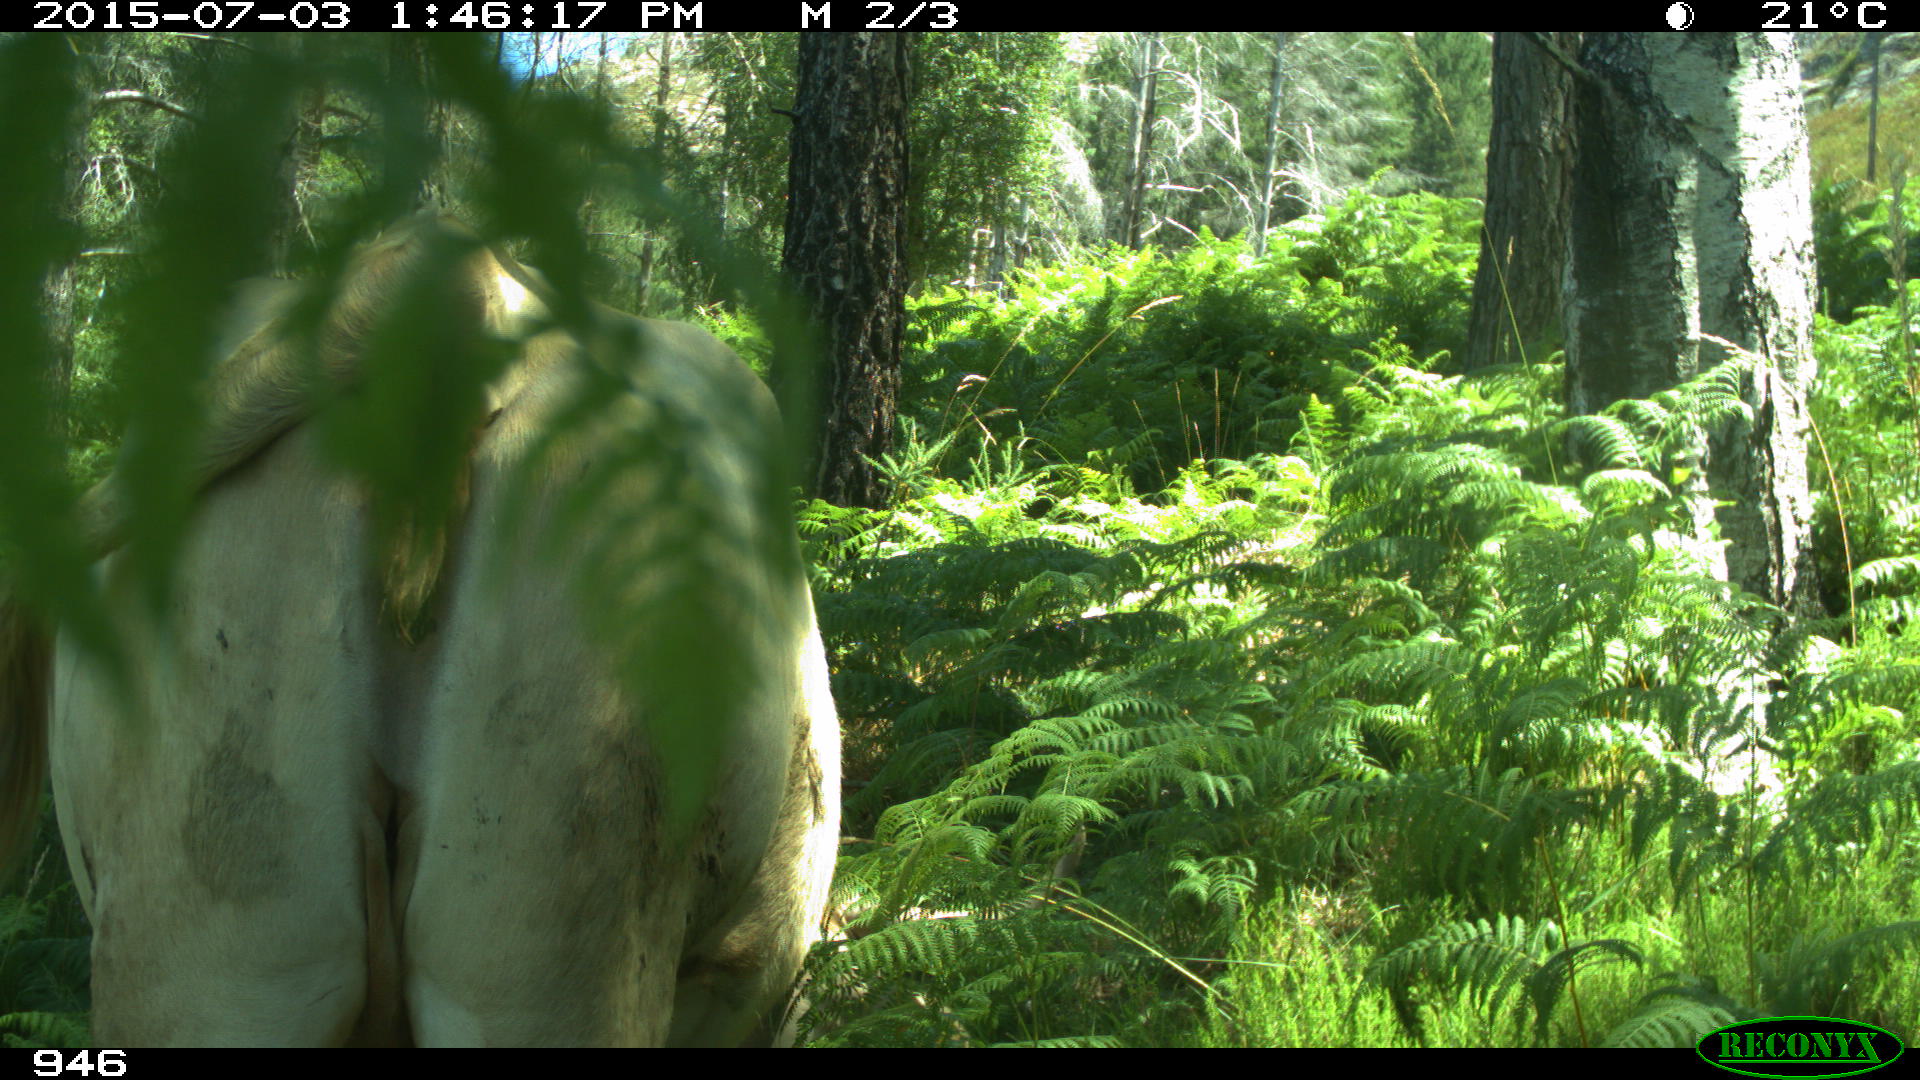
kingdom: Animalia
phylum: Chordata
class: Mammalia
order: Artiodactyla
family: Bovidae
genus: Bos
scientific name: Bos taurus
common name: Domesticated cattle
